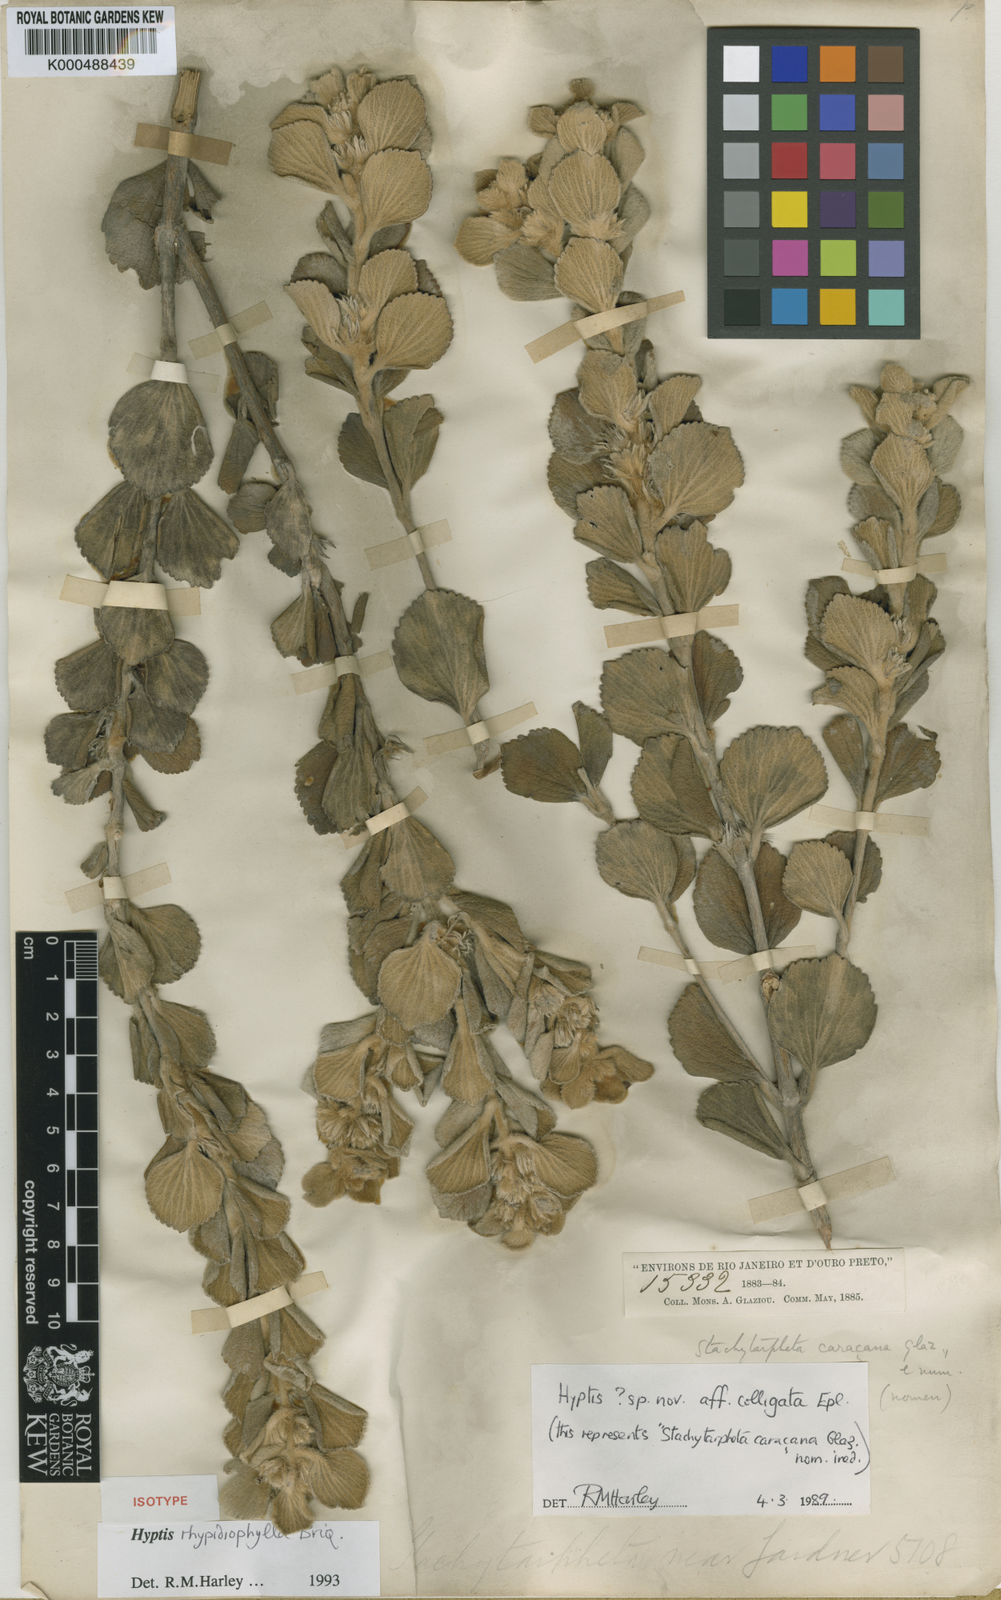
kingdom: Plantae
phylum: Tracheophyta
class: Magnoliopsida
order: Lamiales
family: Lamiaceae
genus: Hyptis
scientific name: Hyptis rhypidiophylla
